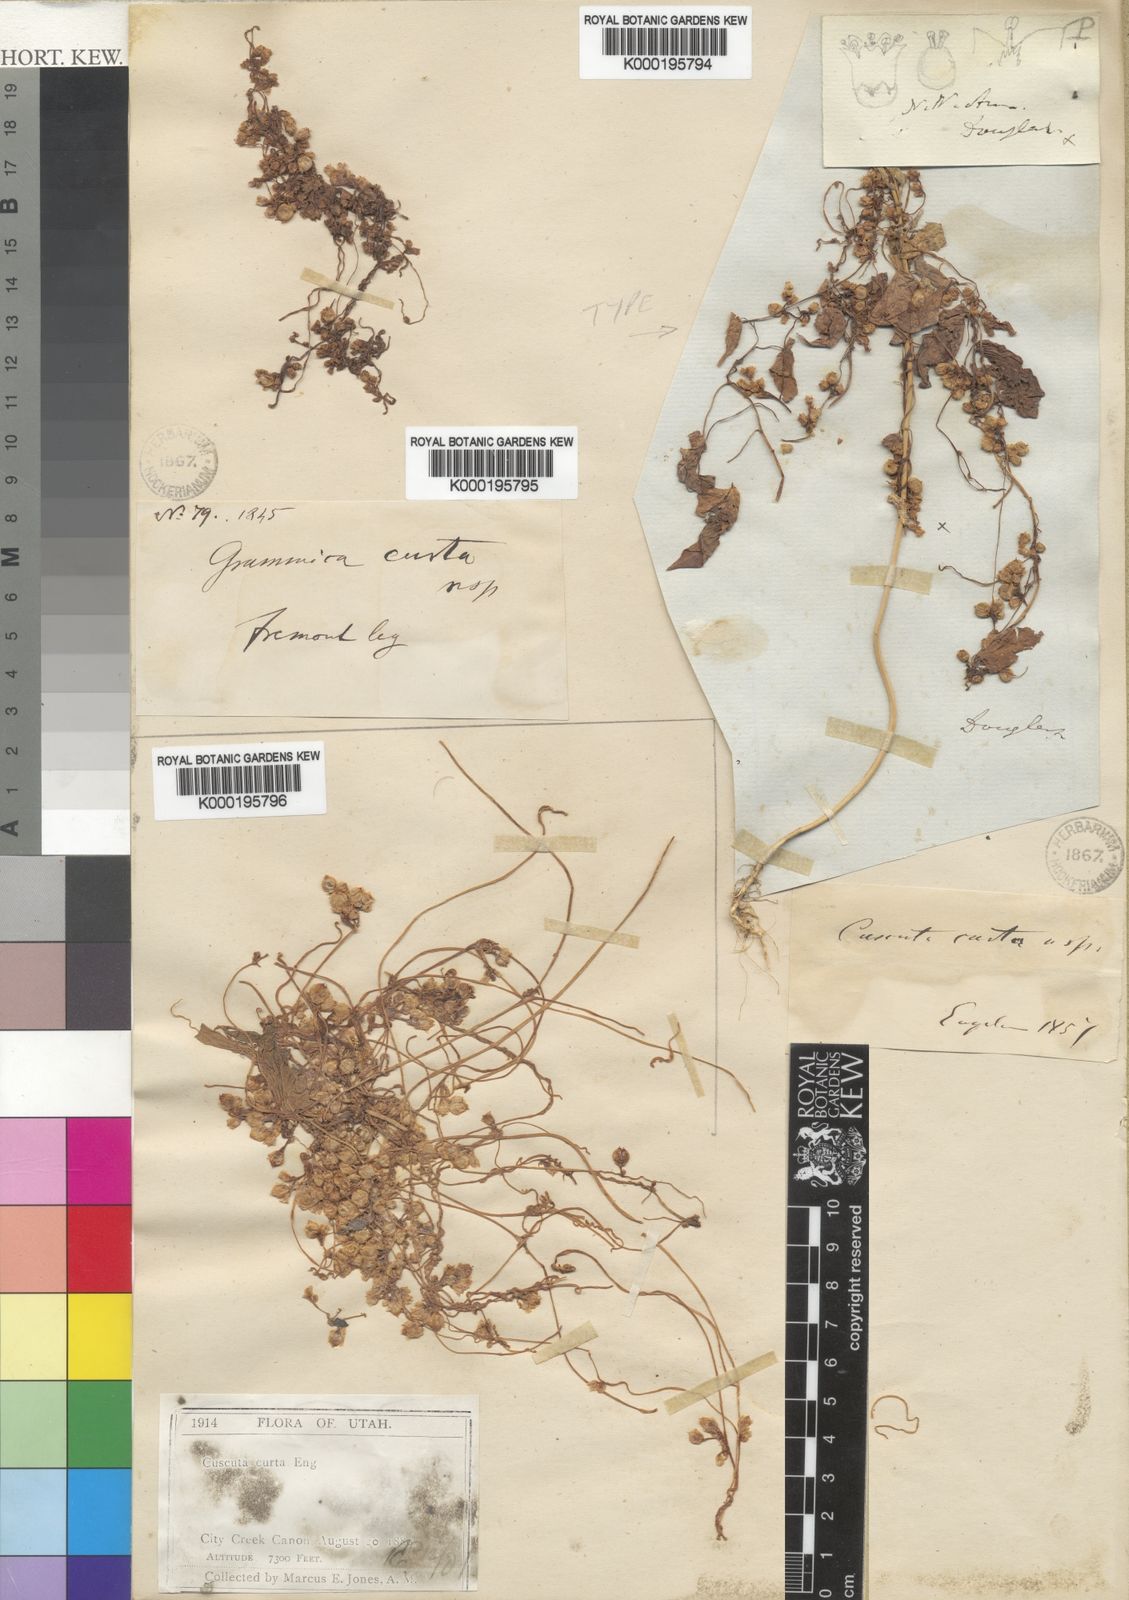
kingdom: Plantae
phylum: Tracheophyta
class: Magnoliopsida
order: Solanales
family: Convolvulaceae
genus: Cuscuta
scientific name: Cuscuta umbrosa
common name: Bigfruit dodder
